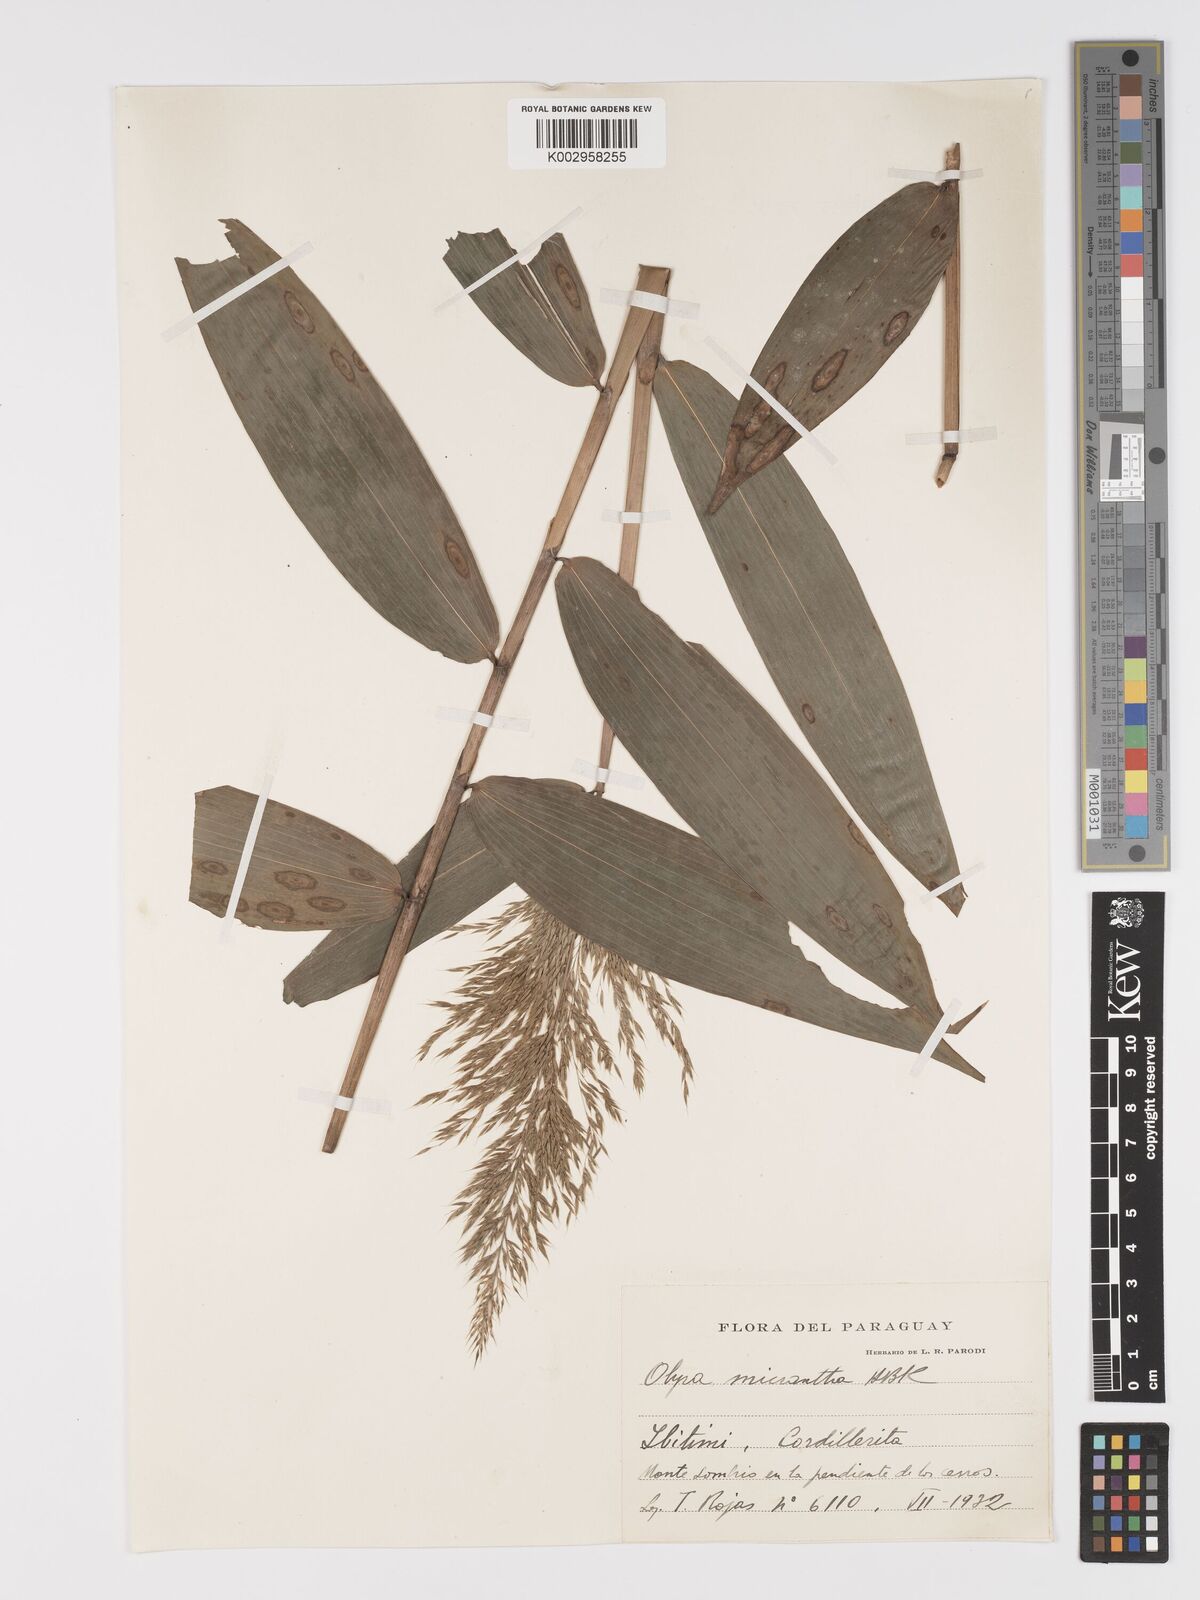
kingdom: Plantae
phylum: Tracheophyta
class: Liliopsida
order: Poales
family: Poaceae
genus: Taquara
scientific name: Taquara micrantha
